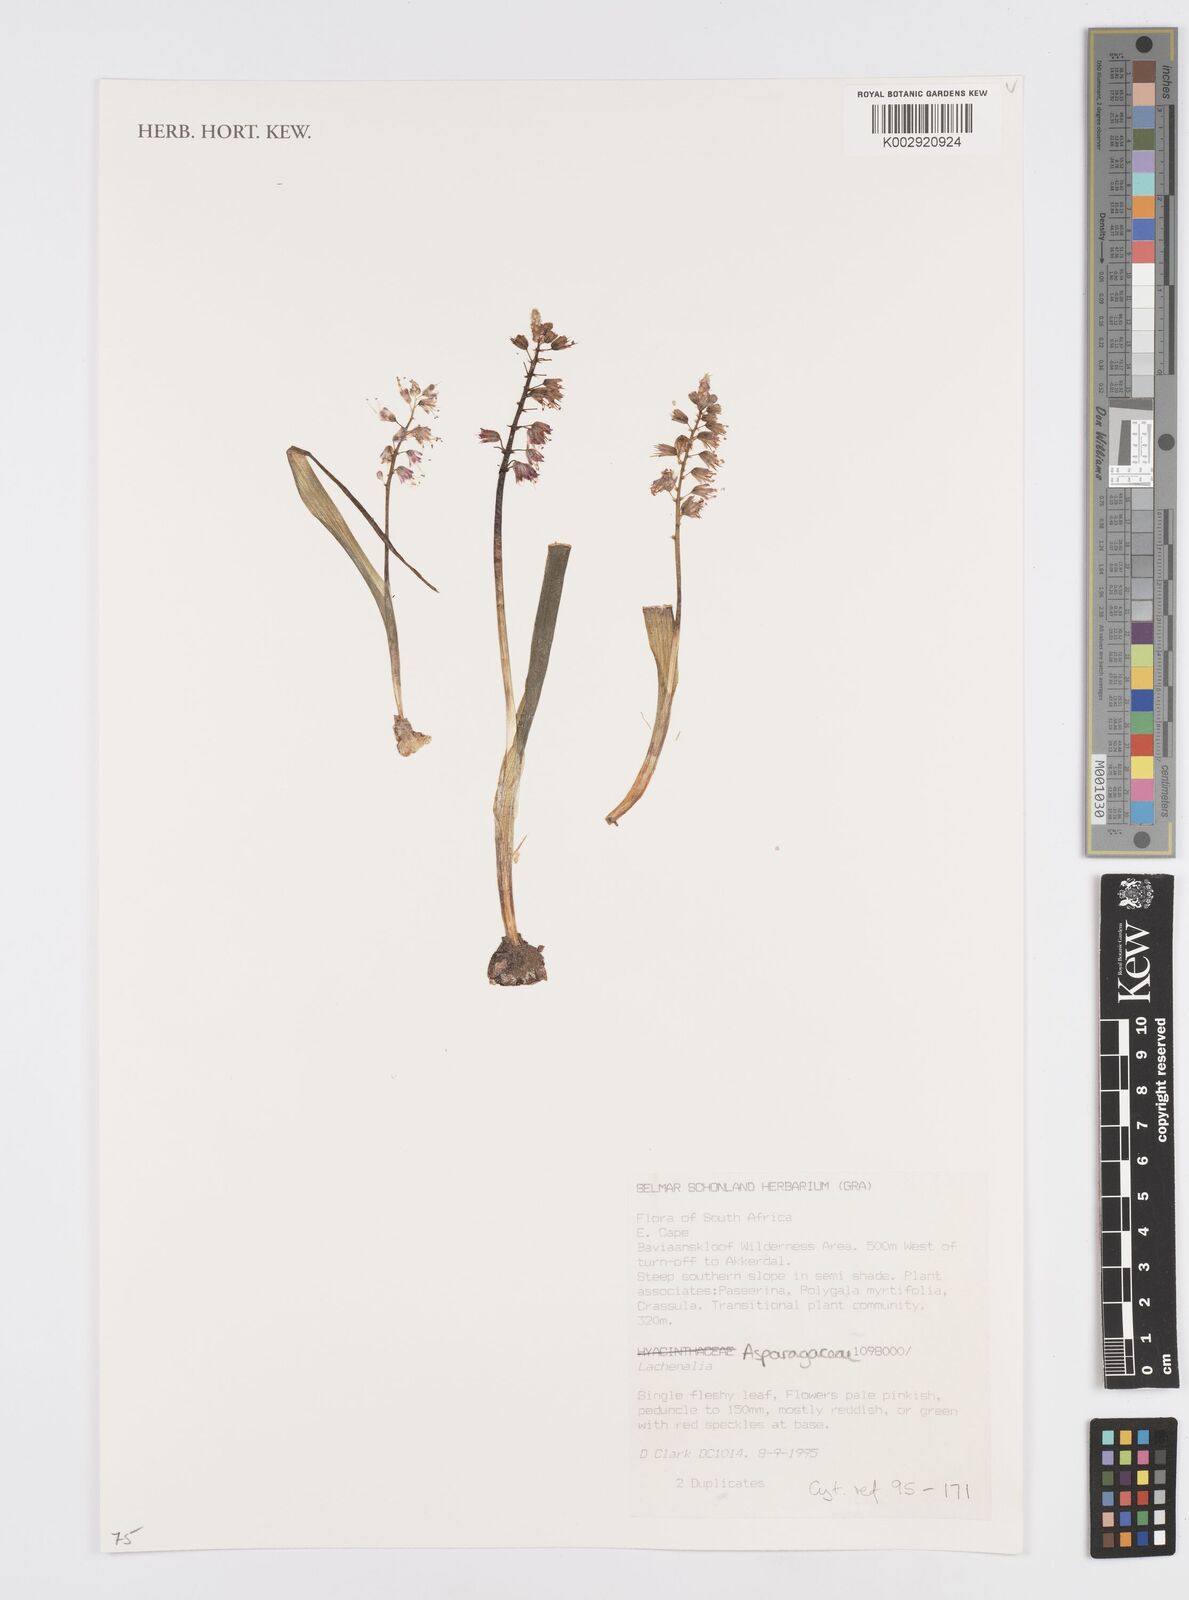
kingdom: Plantae
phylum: Tracheophyta
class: Liliopsida
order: Asparagales
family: Asparagaceae
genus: Lachenalia
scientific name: Lachenalia
